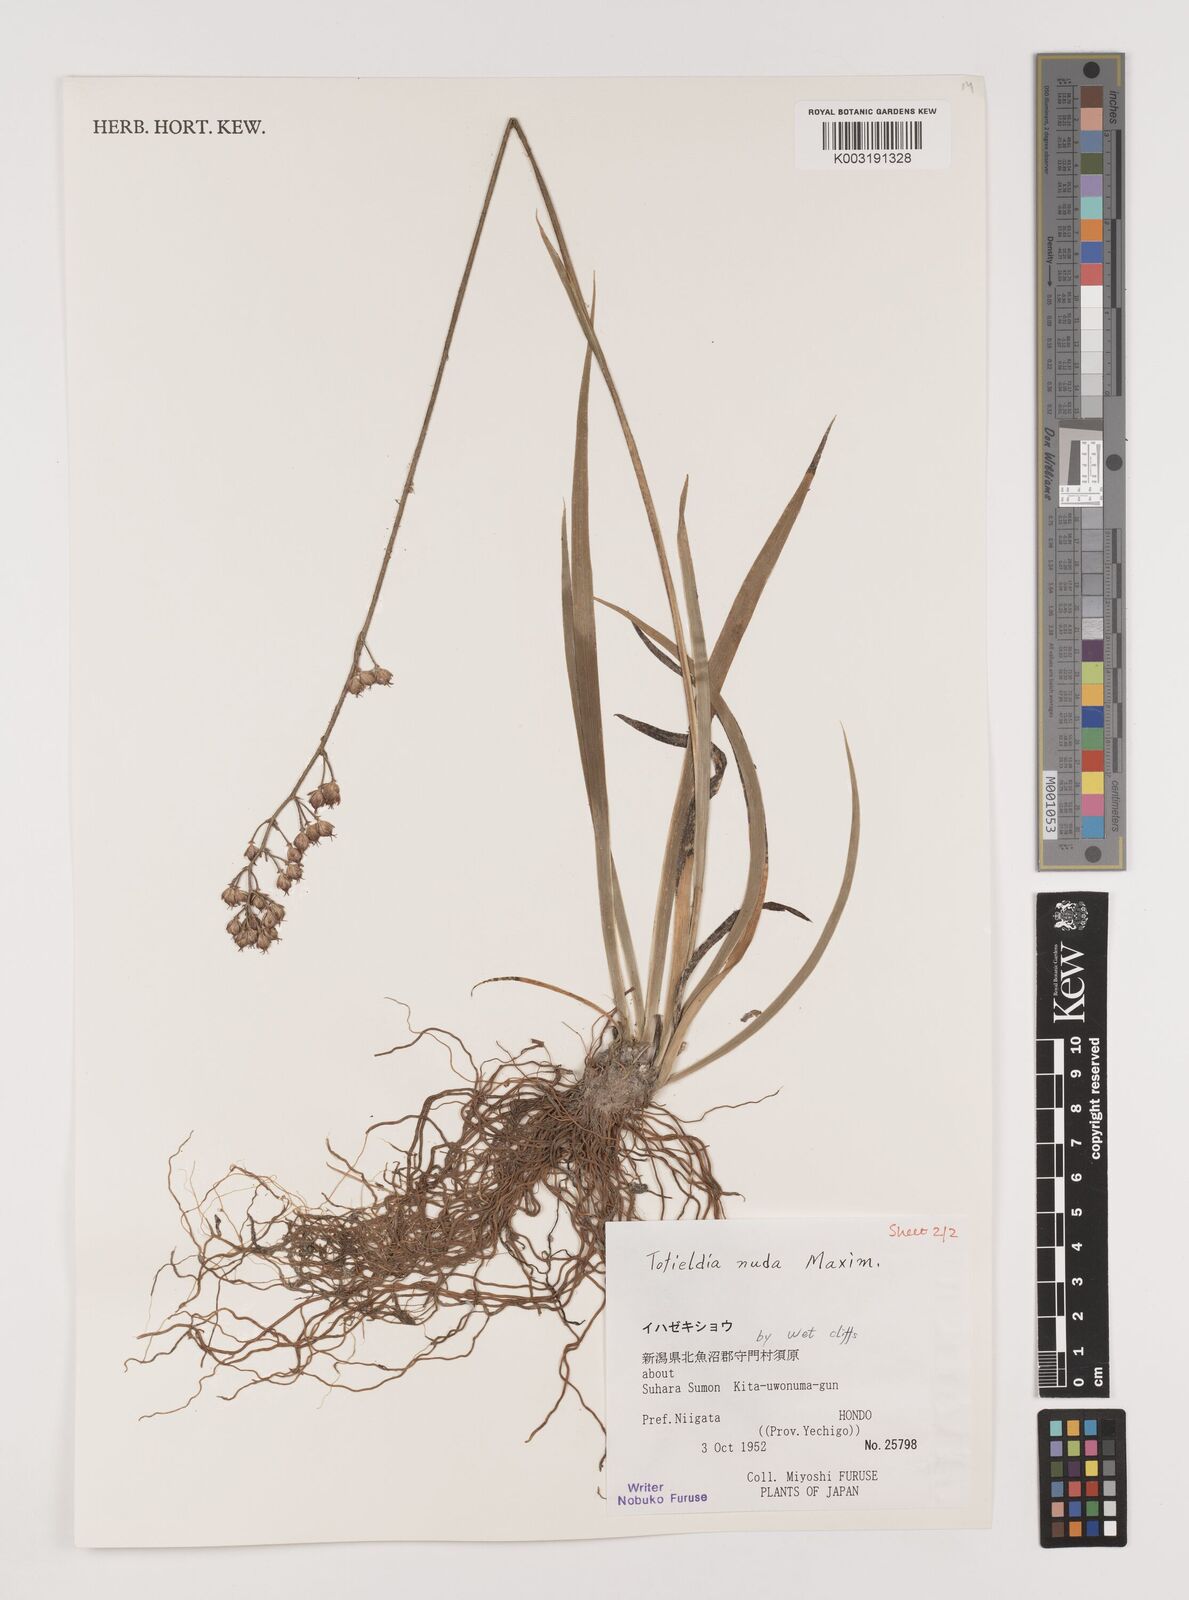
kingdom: Plantae
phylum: Tracheophyta
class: Liliopsida
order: Alismatales
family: Tofieldiaceae
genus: Tofieldia
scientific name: Tofieldia nuda
